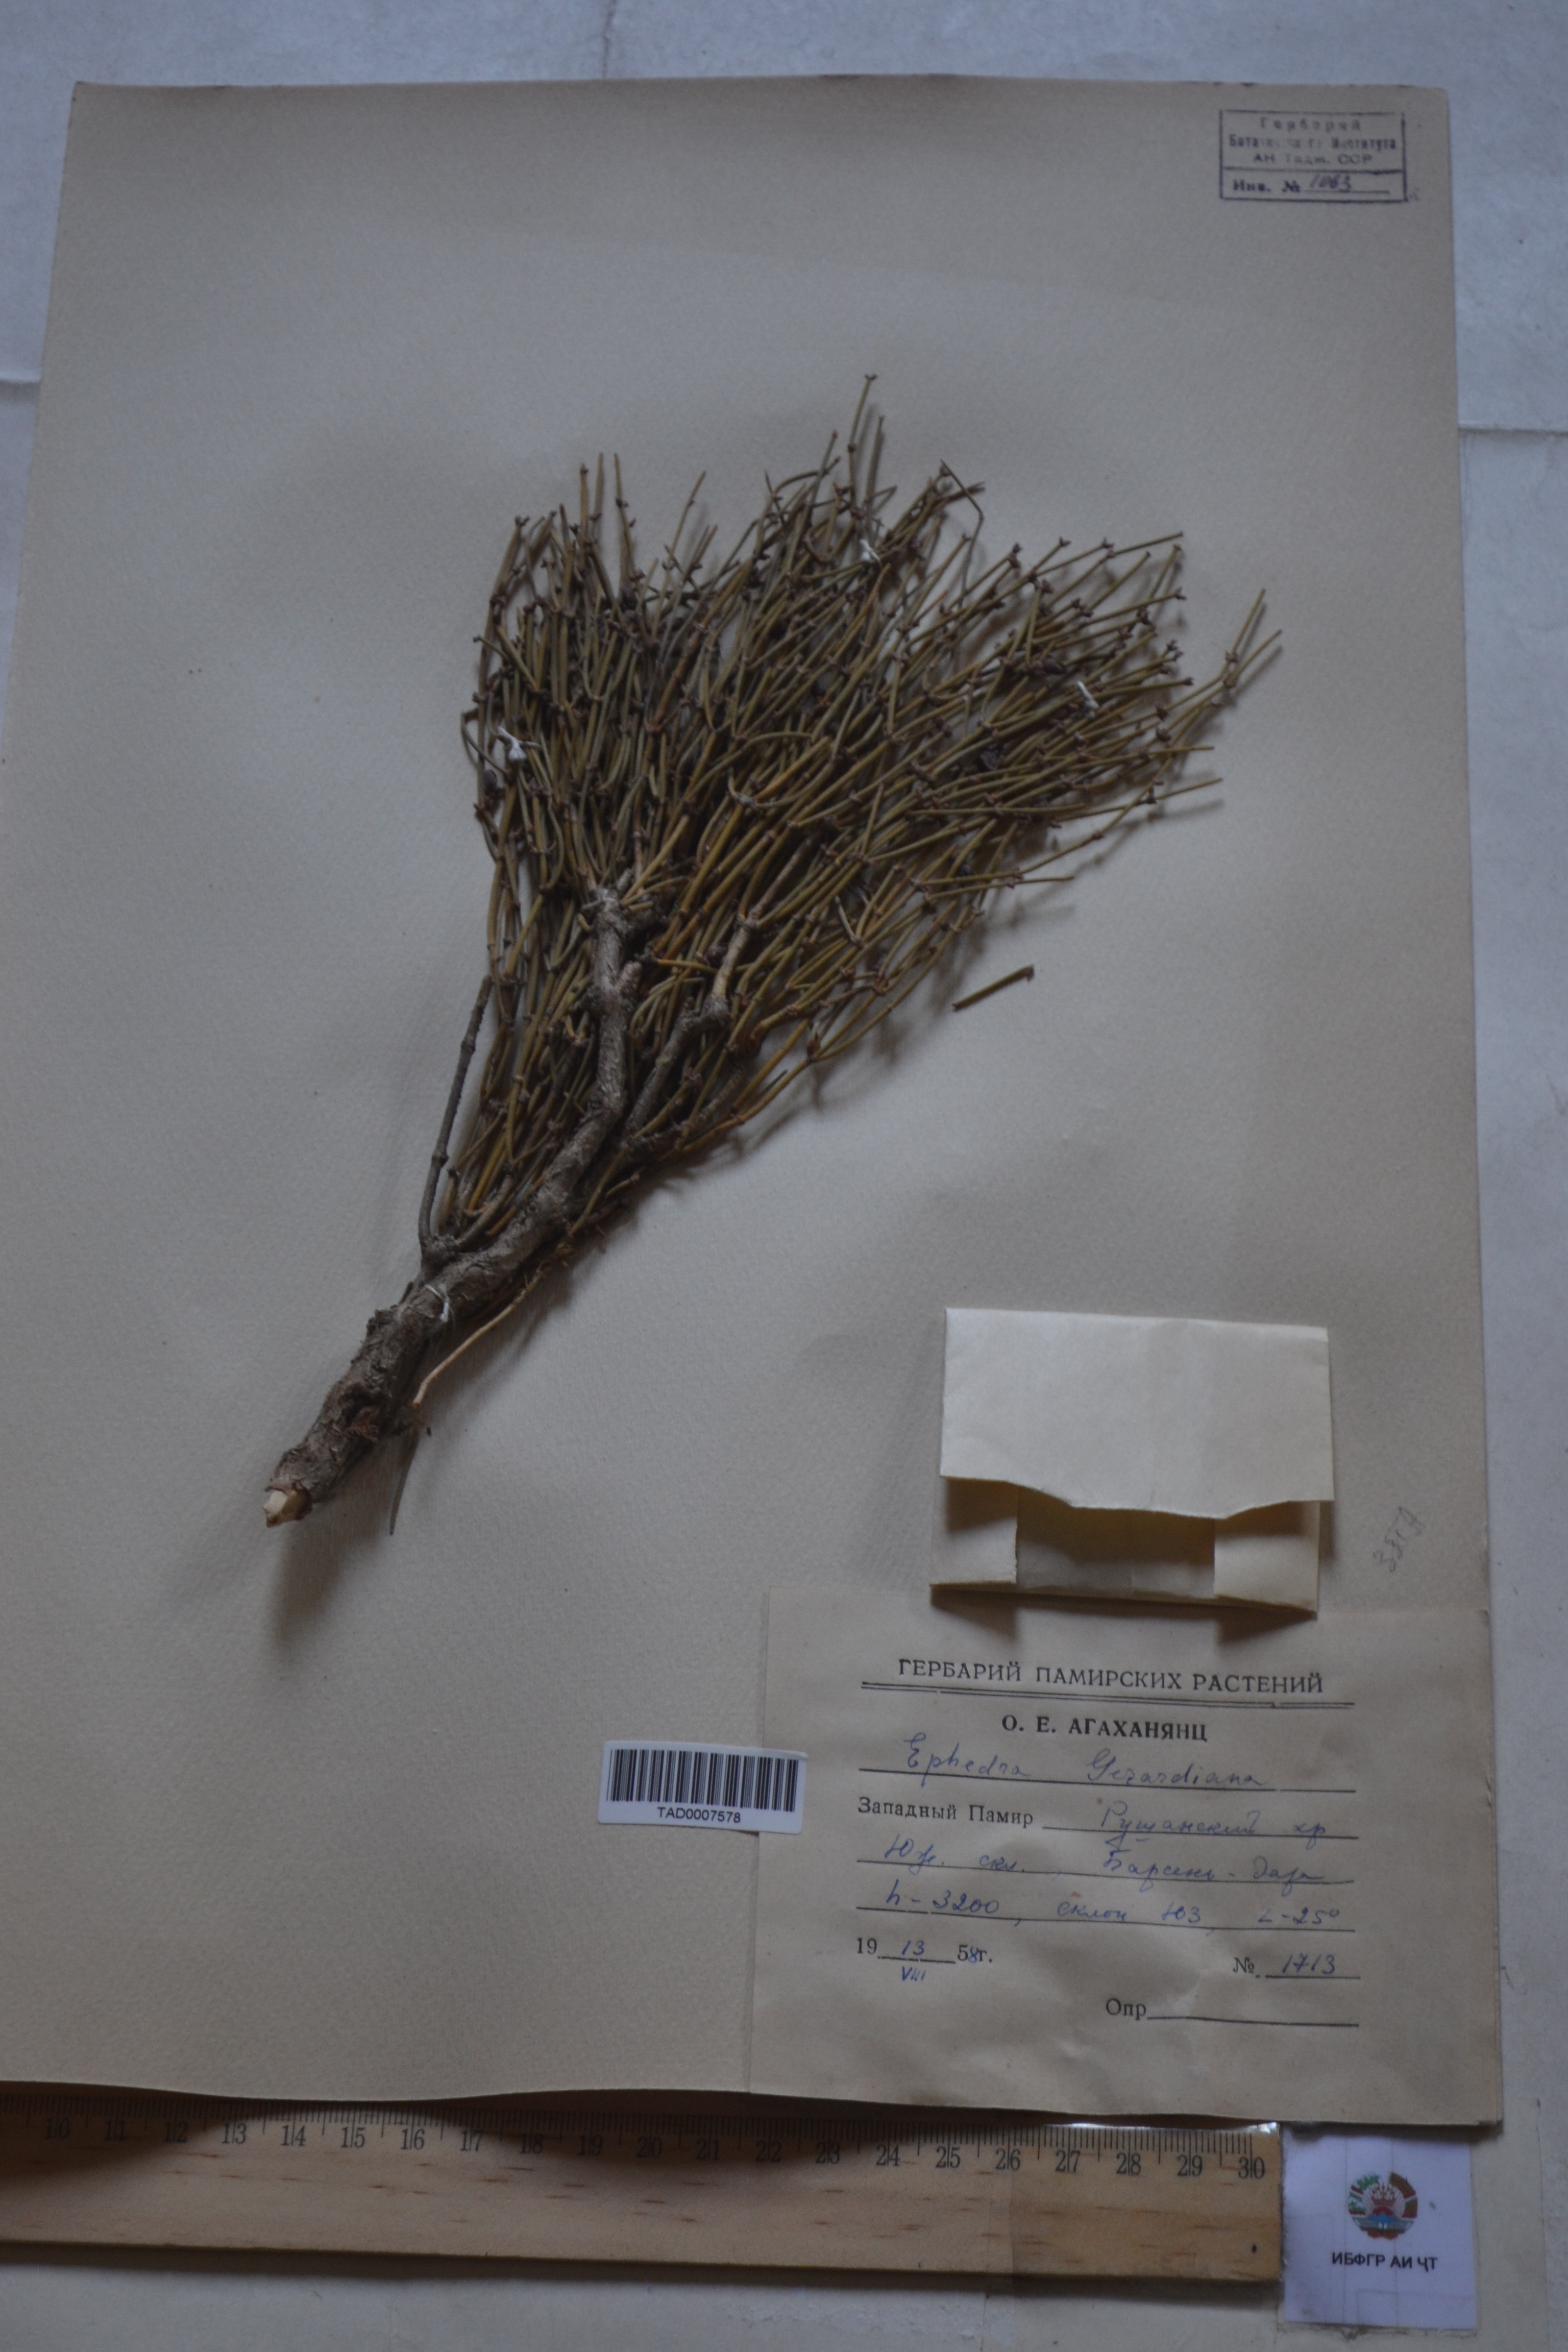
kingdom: Plantae
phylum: Tracheophyta
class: Gnetopsida
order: Ephedrales
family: Ephedraceae
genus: Ephedra
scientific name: Ephedra gerardiana
